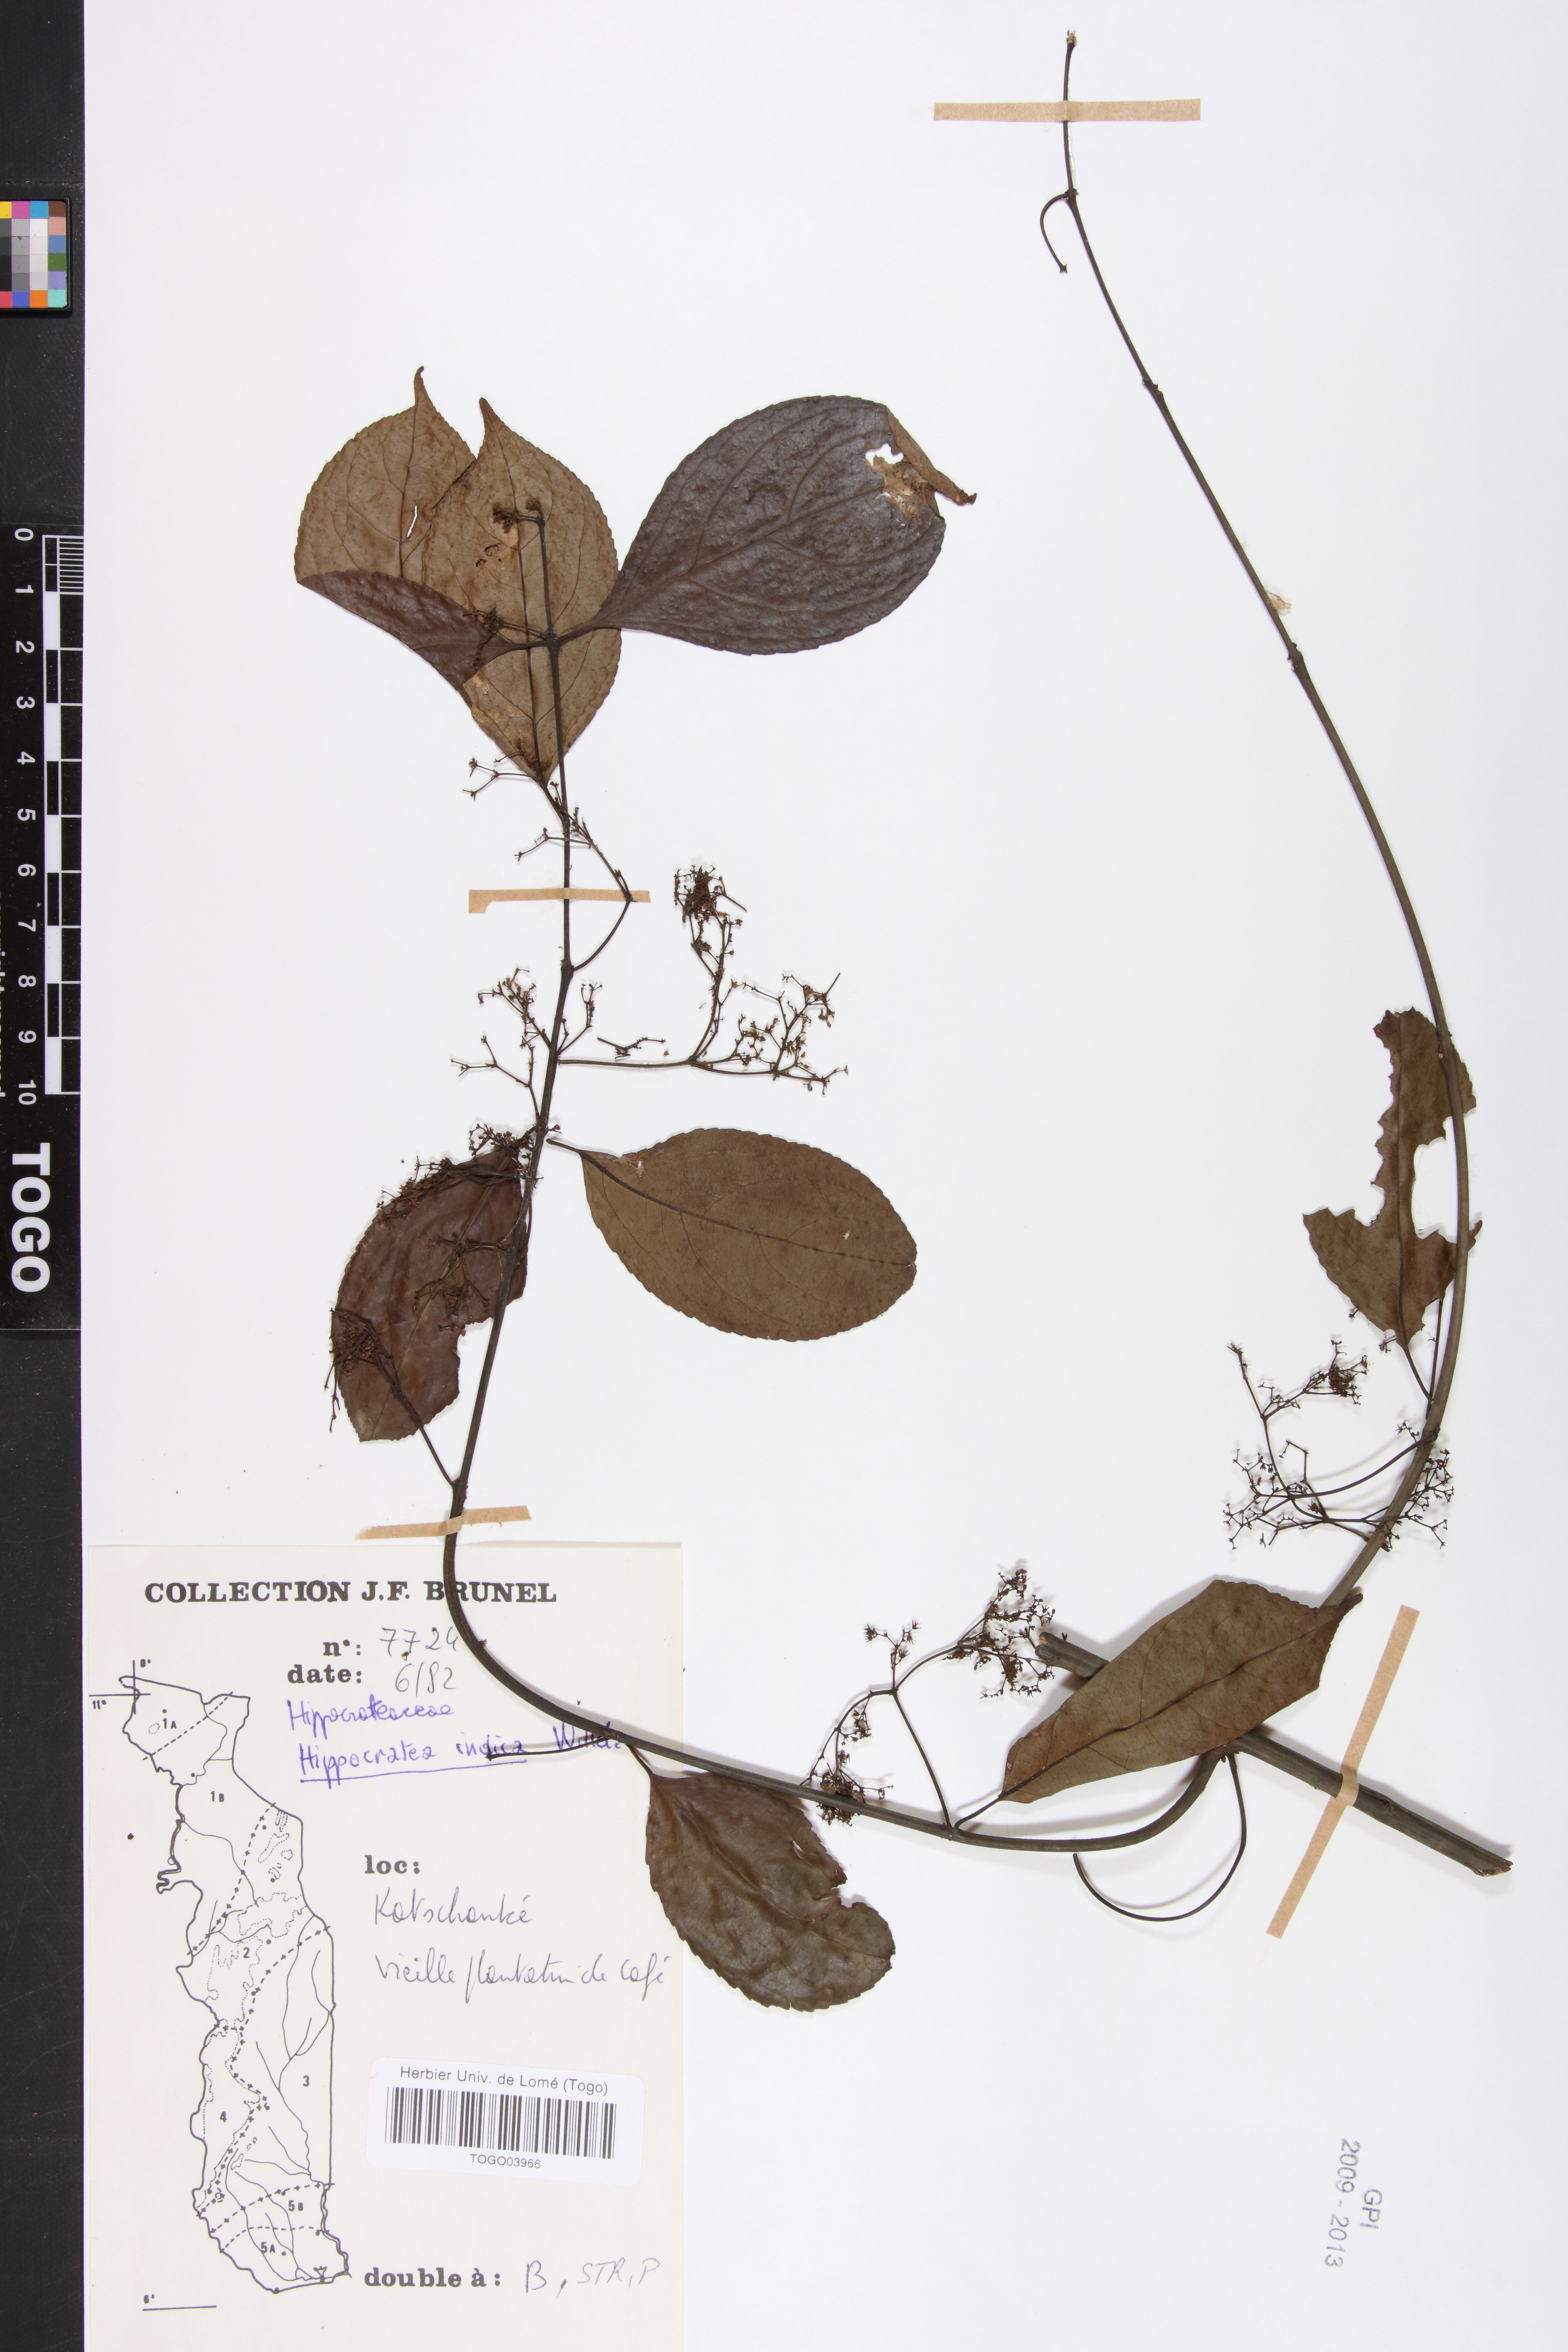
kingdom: Plantae
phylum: Tracheophyta
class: Magnoliopsida
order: Celastrales
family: Celastraceae
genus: Reissantia
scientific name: Reissantia indica
